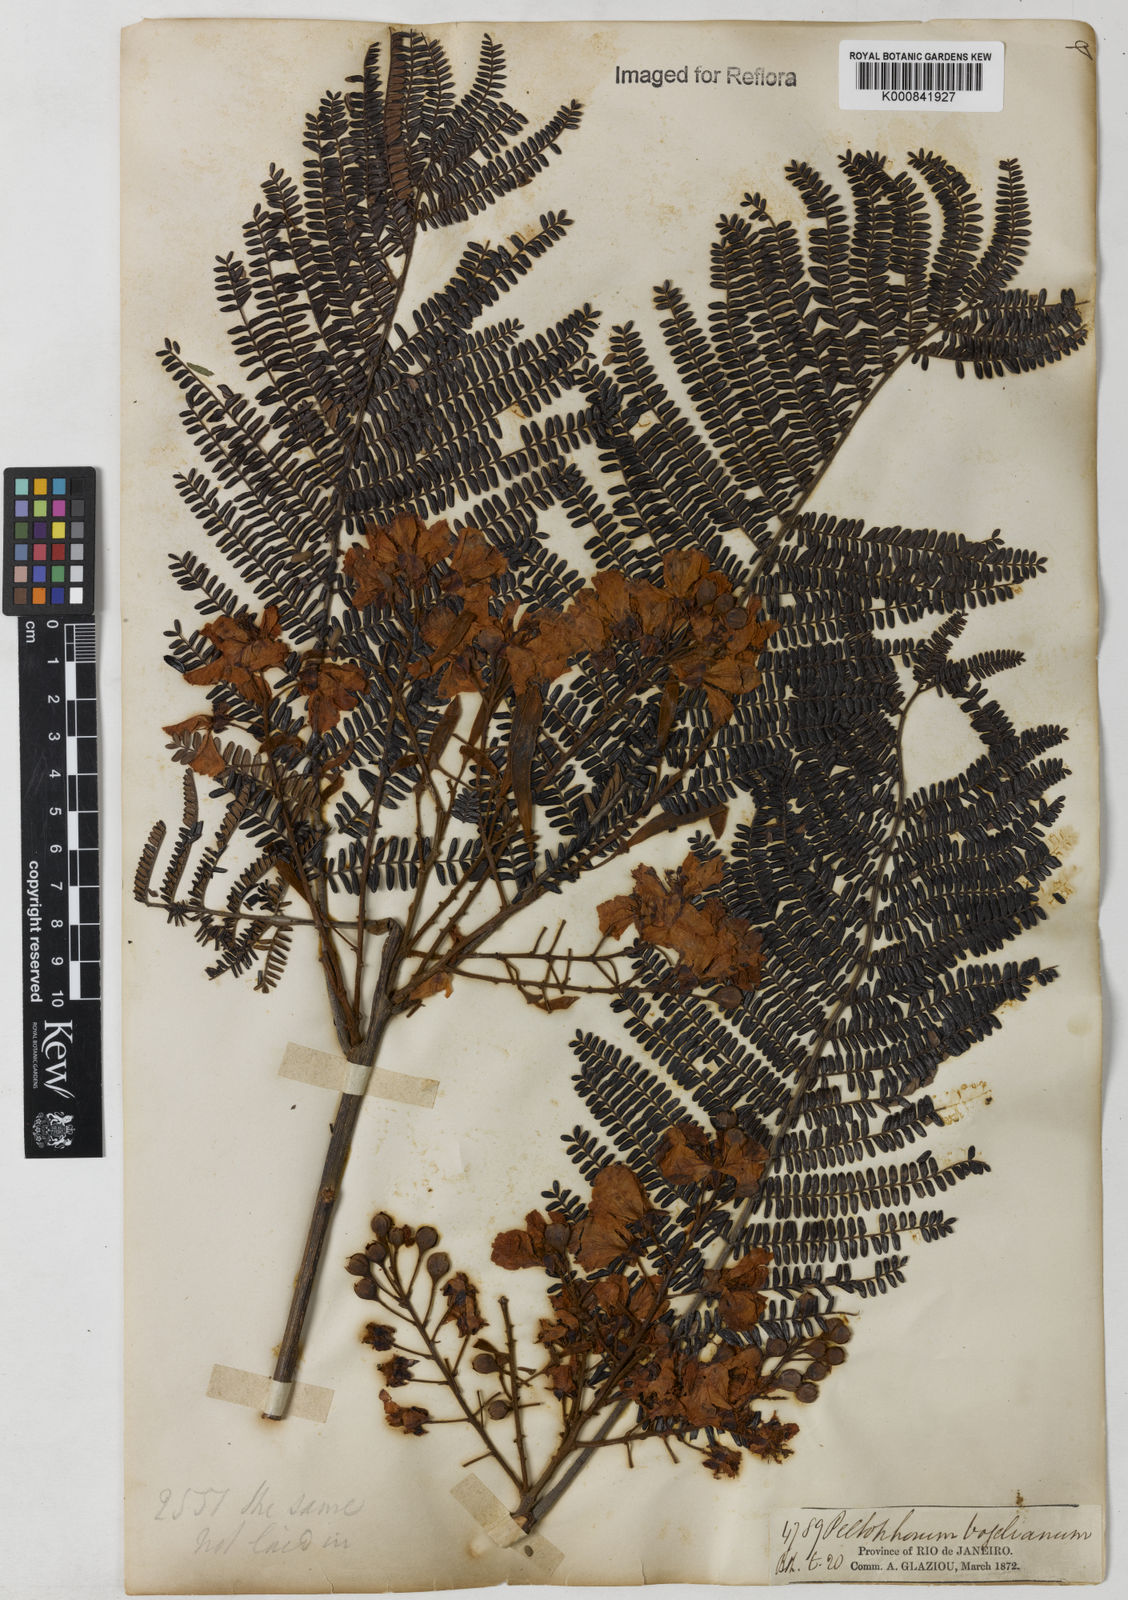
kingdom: Plantae
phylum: Tracheophyta
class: Magnoliopsida
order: Fabales
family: Fabaceae
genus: Peltophorum
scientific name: Peltophorum dubium
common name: Horsebush
